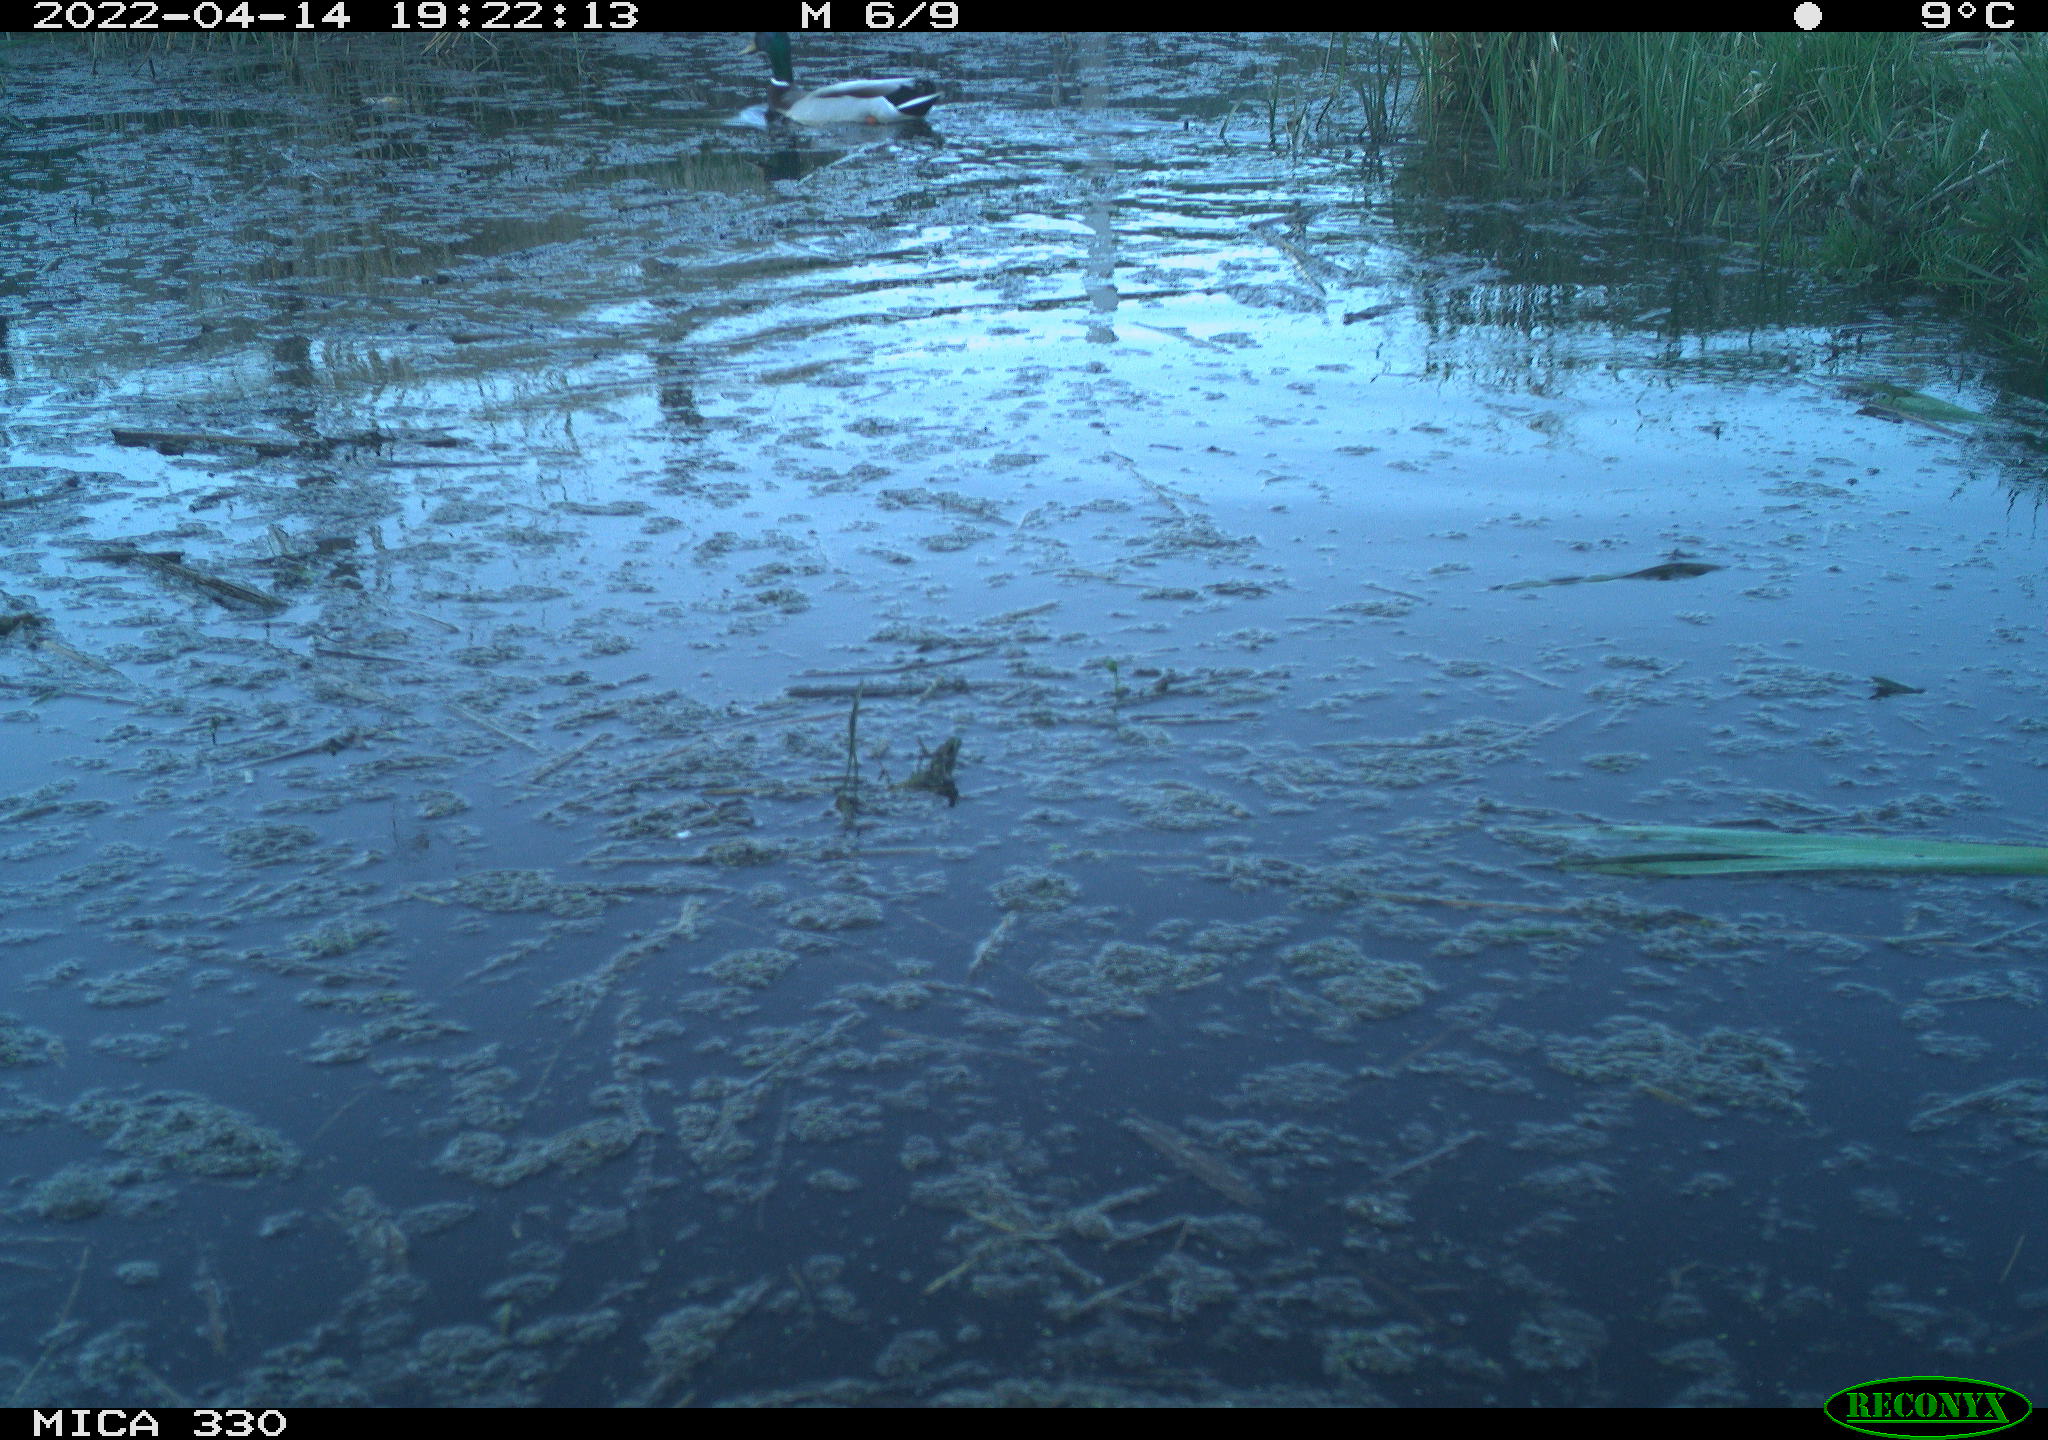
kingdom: Animalia
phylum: Chordata
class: Aves
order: Anseriformes
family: Anatidae
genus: Anas
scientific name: Anas platyrhynchos
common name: Mallard
